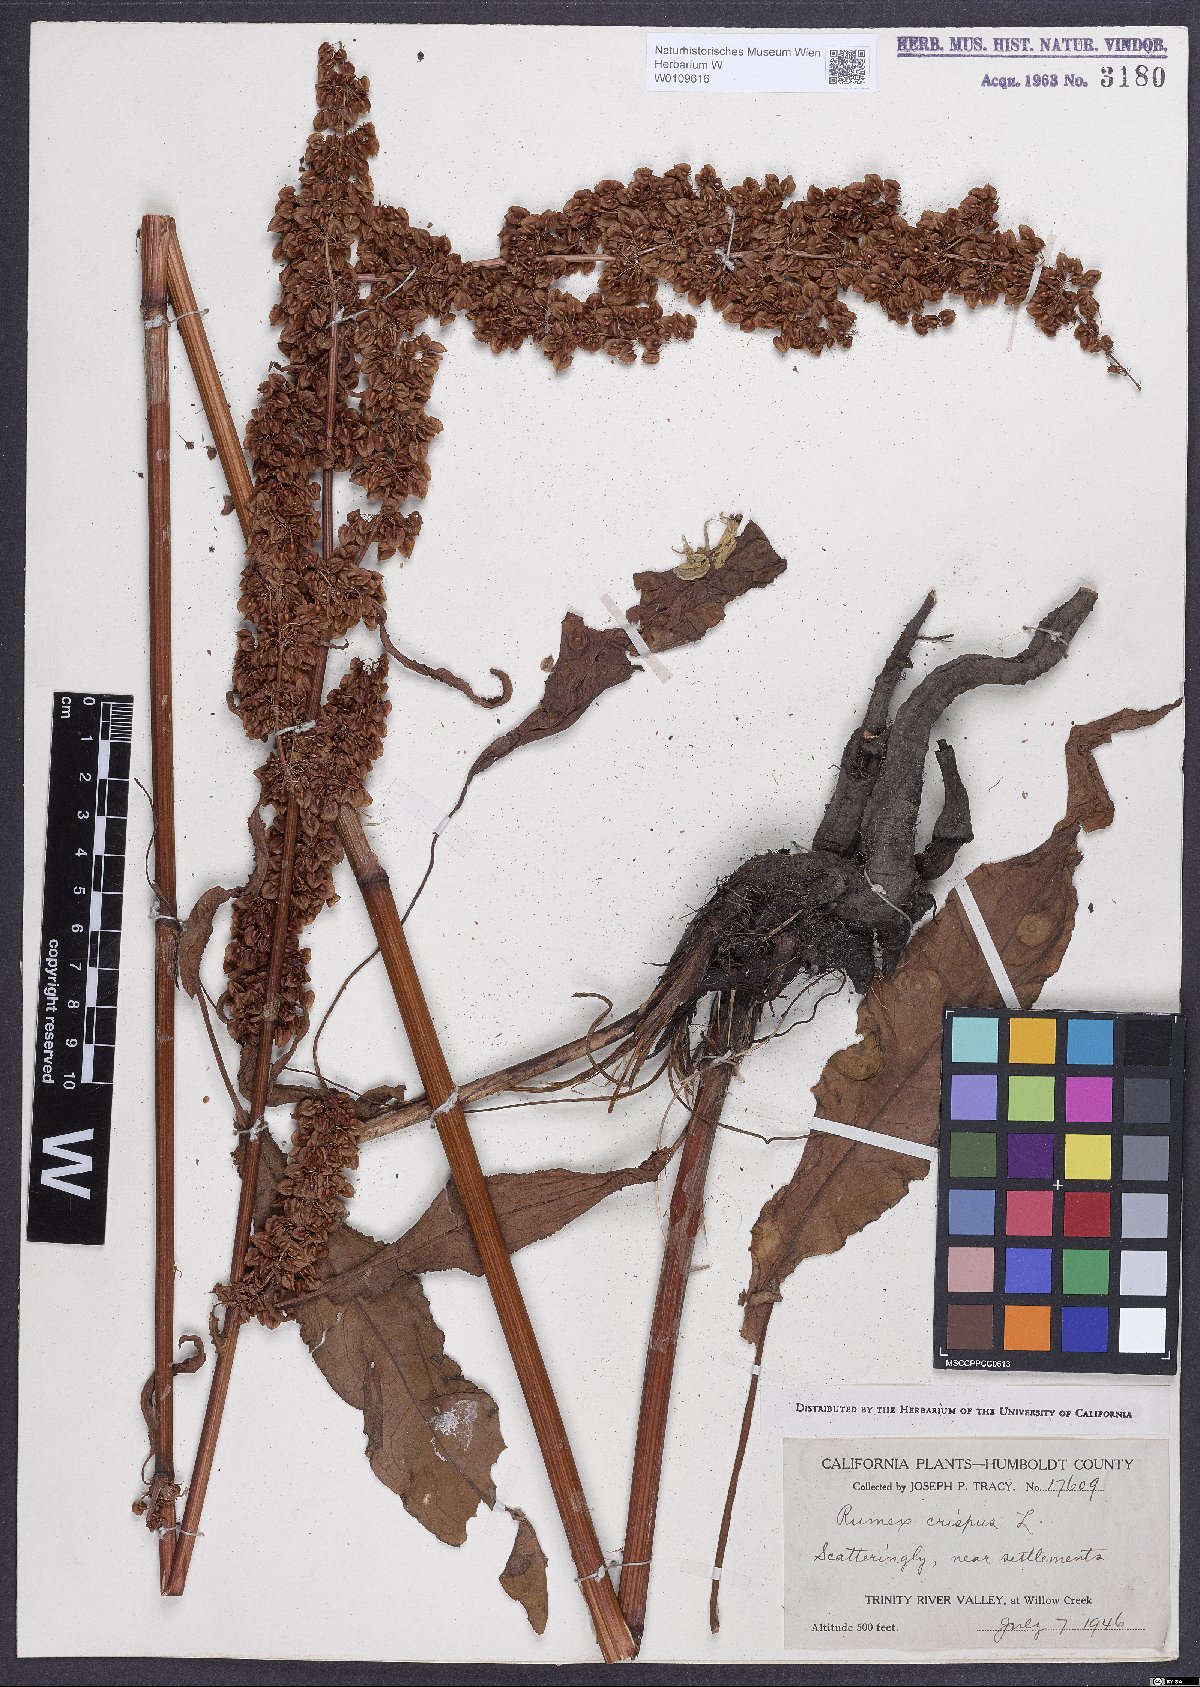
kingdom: Plantae
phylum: Tracheophyta
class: Magnoliopsida
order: Caryophyllales
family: Polygonaceae
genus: Rumex
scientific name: Rumex crispus
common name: Curled dock
